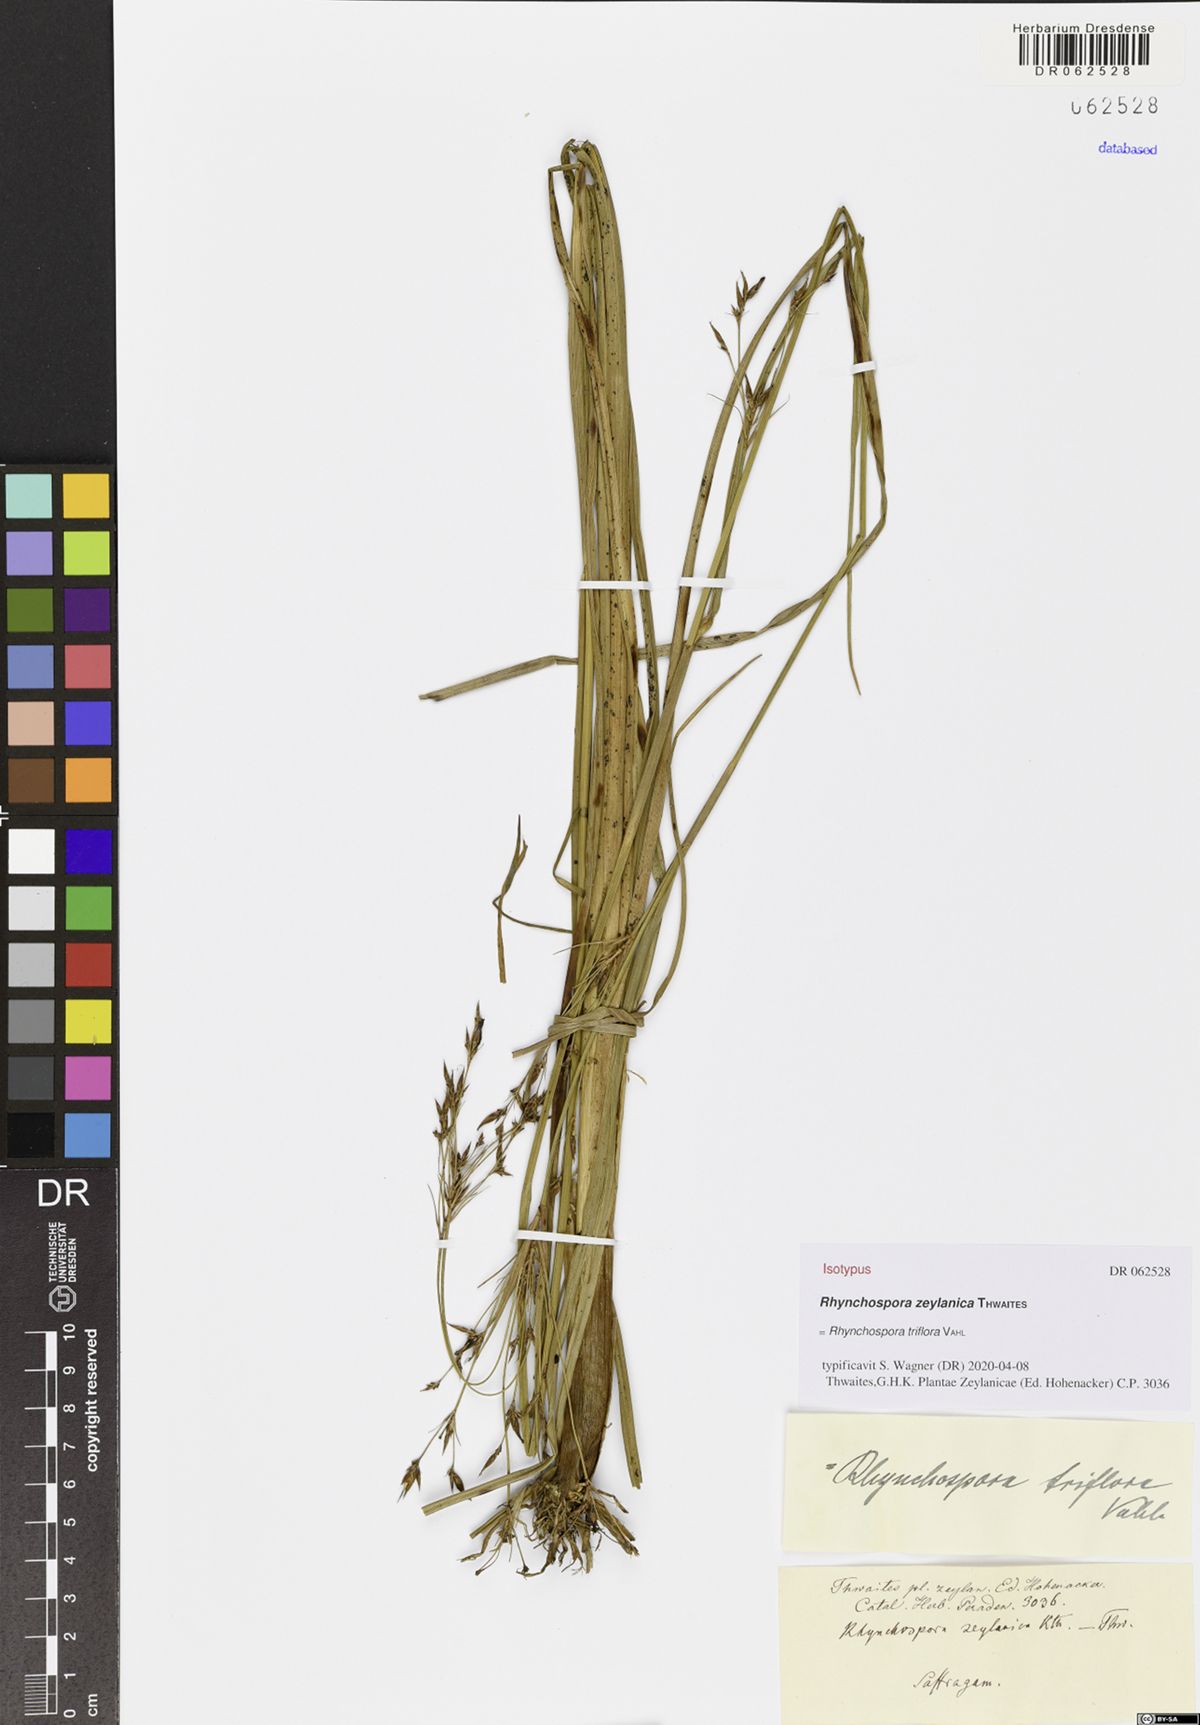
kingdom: Plantae
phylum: Tracheophyta
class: Liliopsida
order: Poales
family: Cyperaceae
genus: Rhynchospora
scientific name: Rhynchospora triflora
